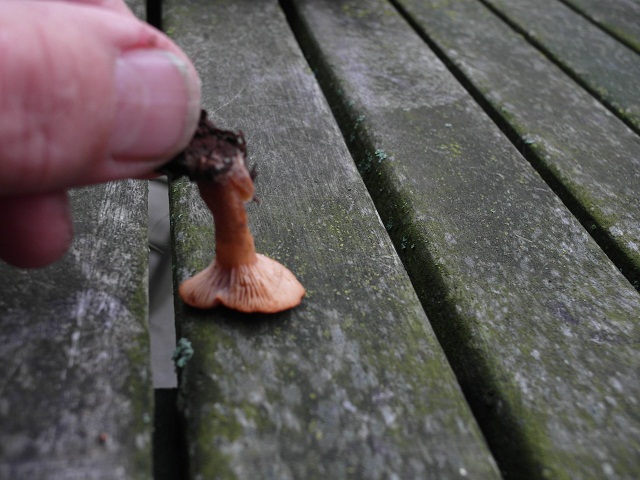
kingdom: Fungi
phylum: Basidiomycota
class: Agaricomycetes
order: Russulales
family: Russulaceae
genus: Lactarius
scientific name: Lactarius quietus
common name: ege-mælkehat
